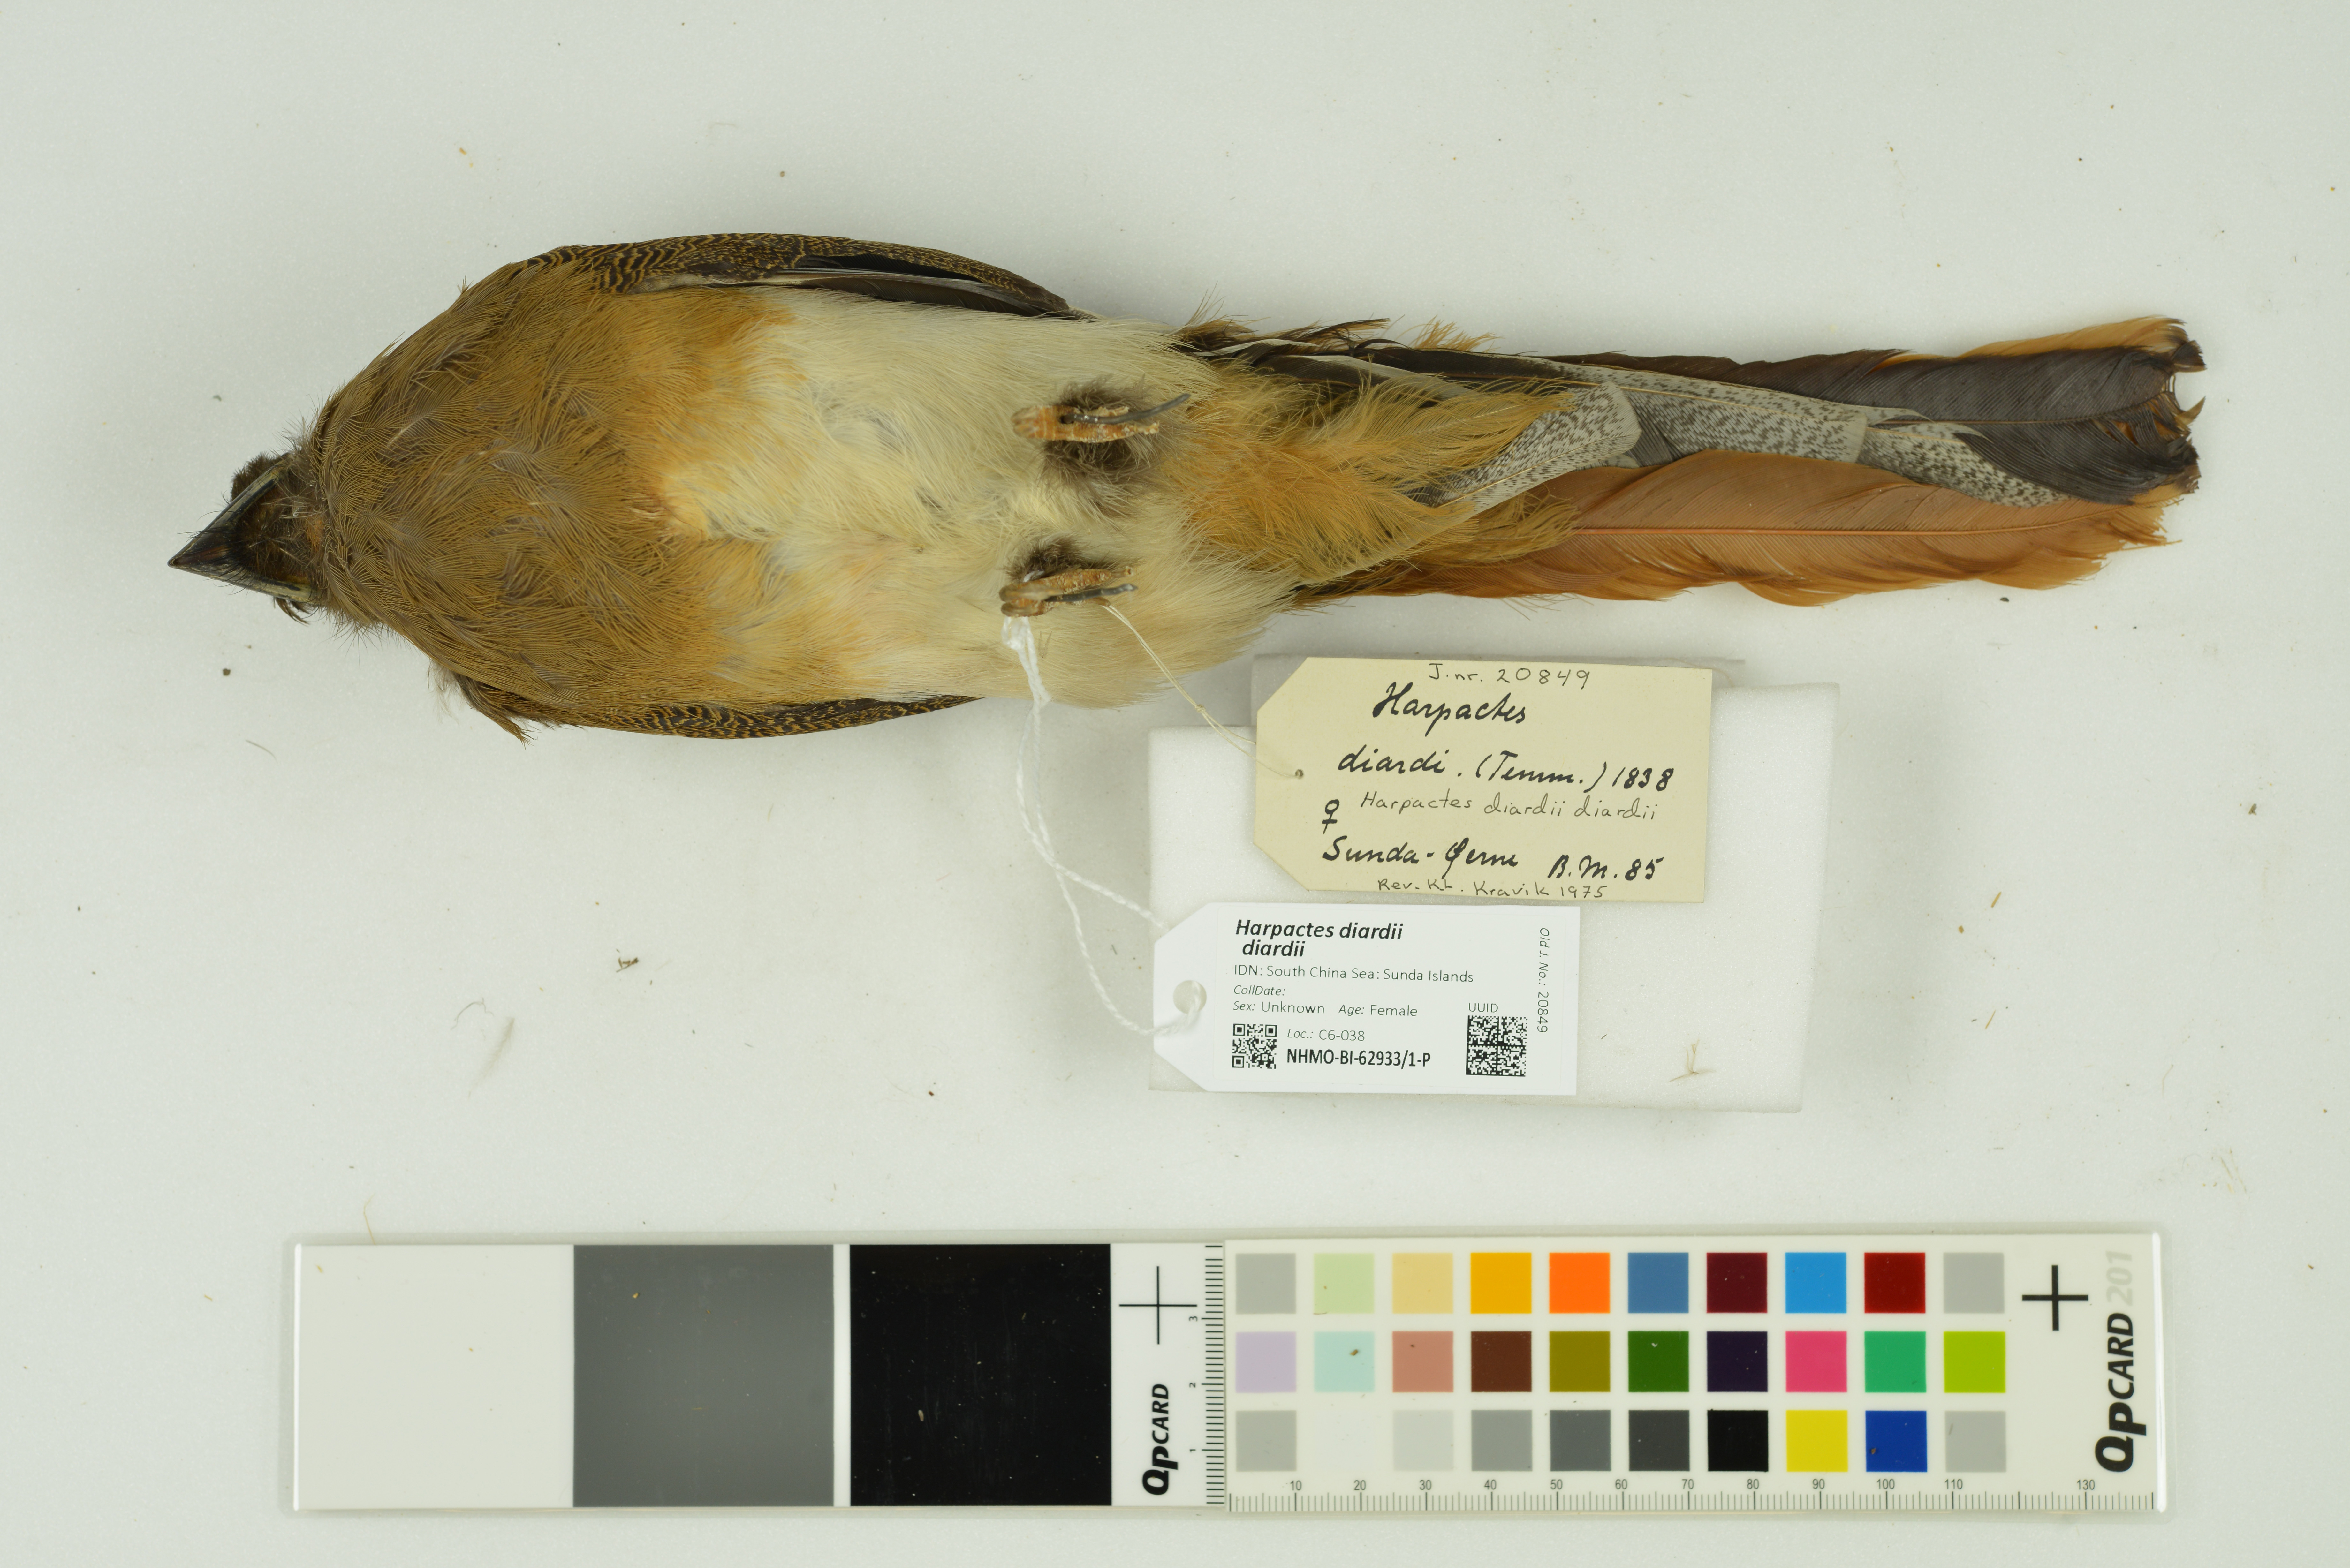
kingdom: Animalia
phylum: Chordata
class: Aves
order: Trogoniformes
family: Trogonidae
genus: Harpactes
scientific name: Harpactes diardii
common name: Diard's trogon
